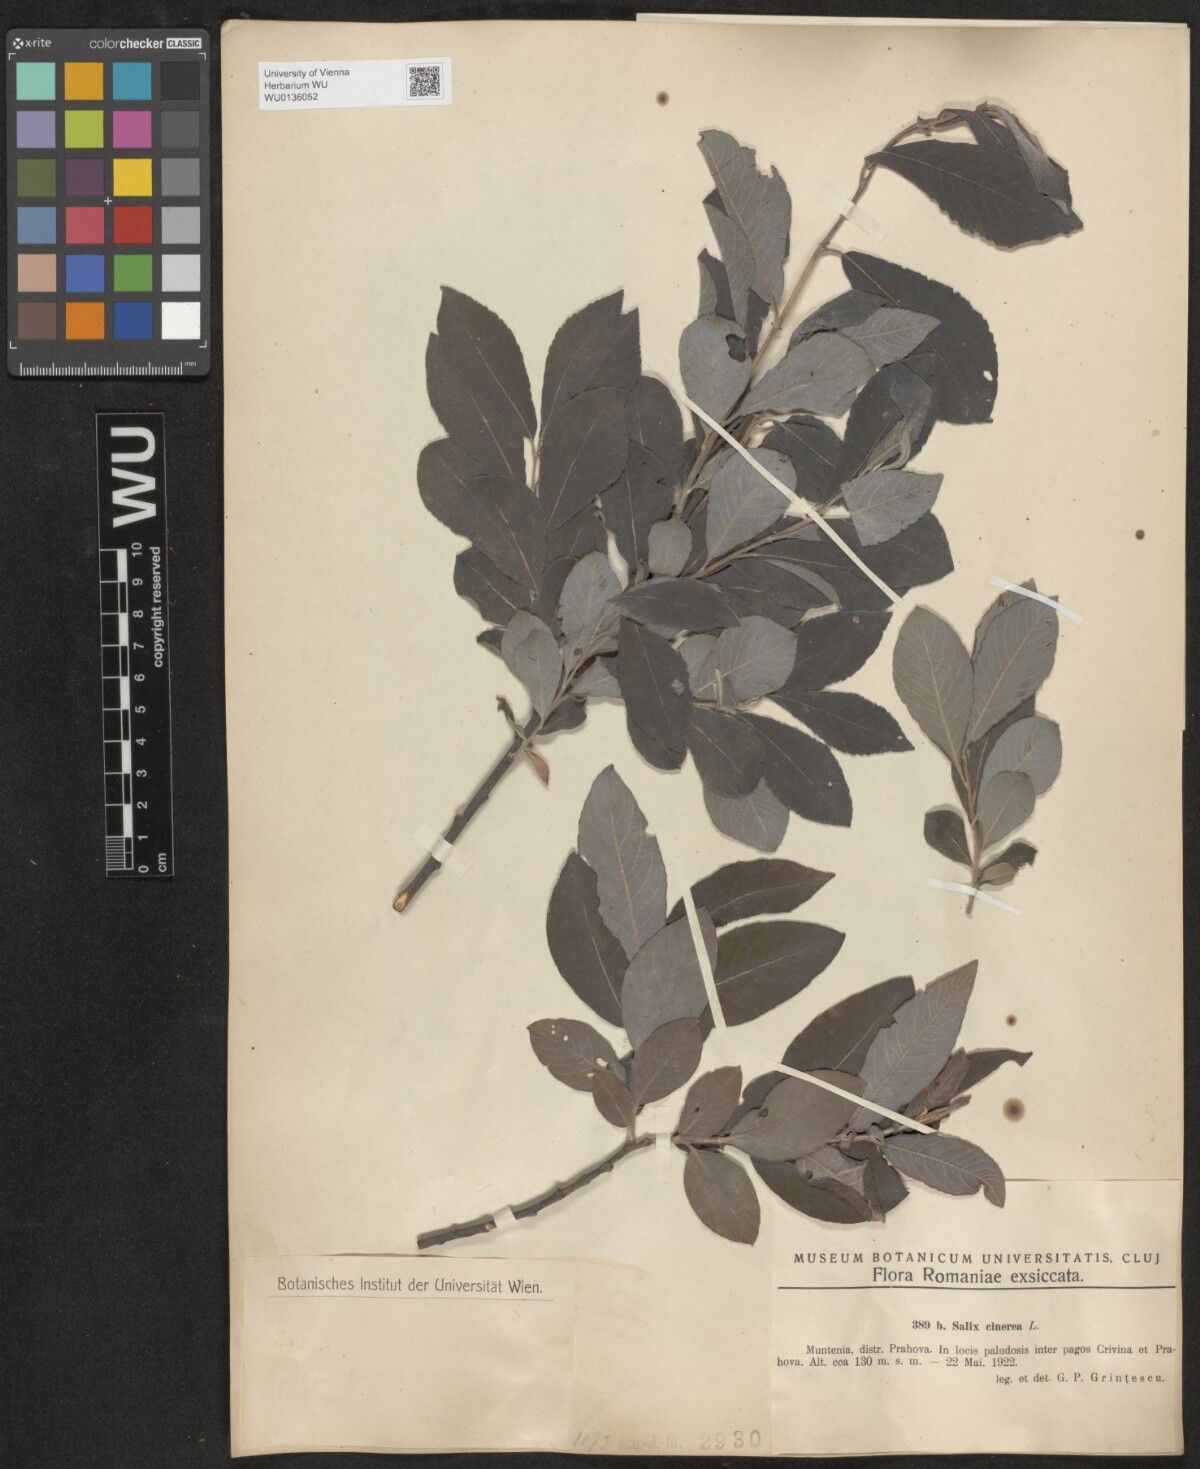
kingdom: Plantae
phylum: Tracheophyta
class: Magnoliopsida
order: Malpighiales
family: Salicaceae
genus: Salix
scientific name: Salix cinerea
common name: Common sallow
